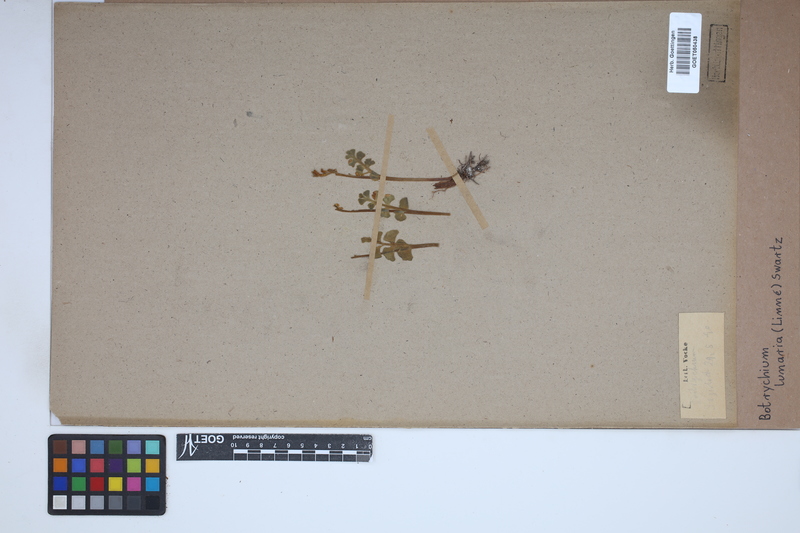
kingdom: Plantae
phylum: Tracheophyta
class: Polypodiopsida
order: Ophioglossales
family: Ophioglossaceae
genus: Botrychium
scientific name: Botrychium lunaria
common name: Moonwort
